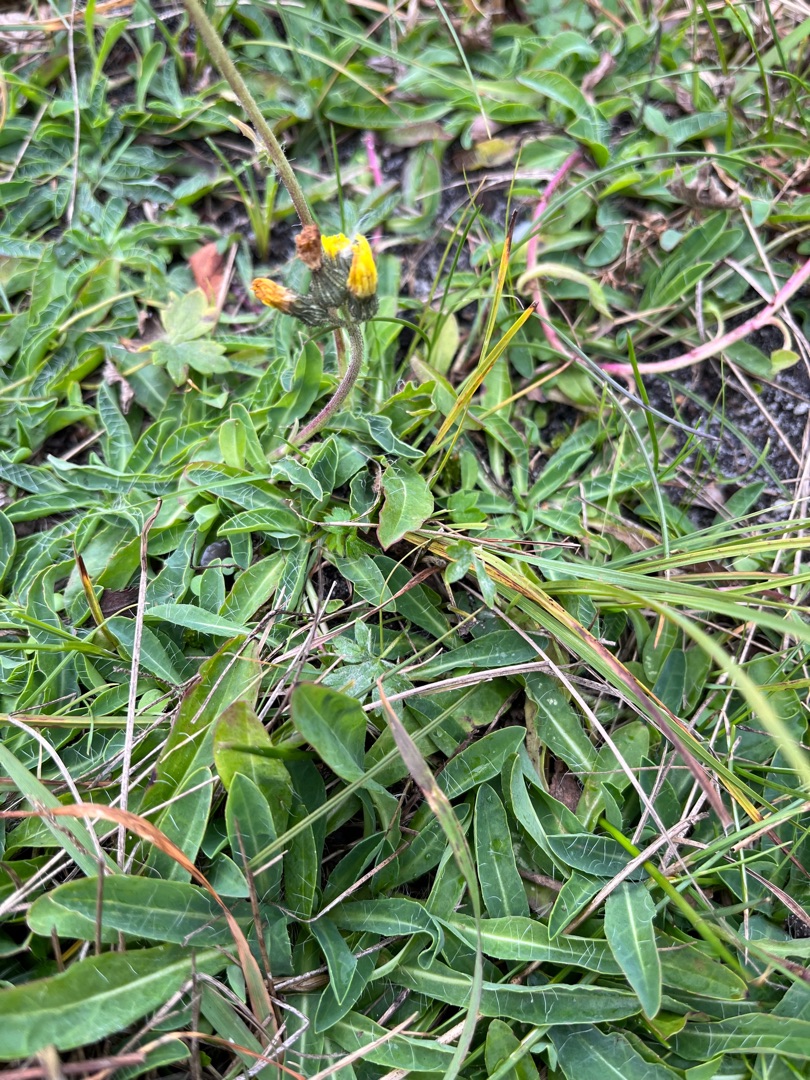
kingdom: Plantae
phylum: Tracheophyta
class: Magnoliopsida
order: Asterales
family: Asteraceae
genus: Pilosella
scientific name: Pilosella lactucella
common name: Lancetbladet høgeurt
